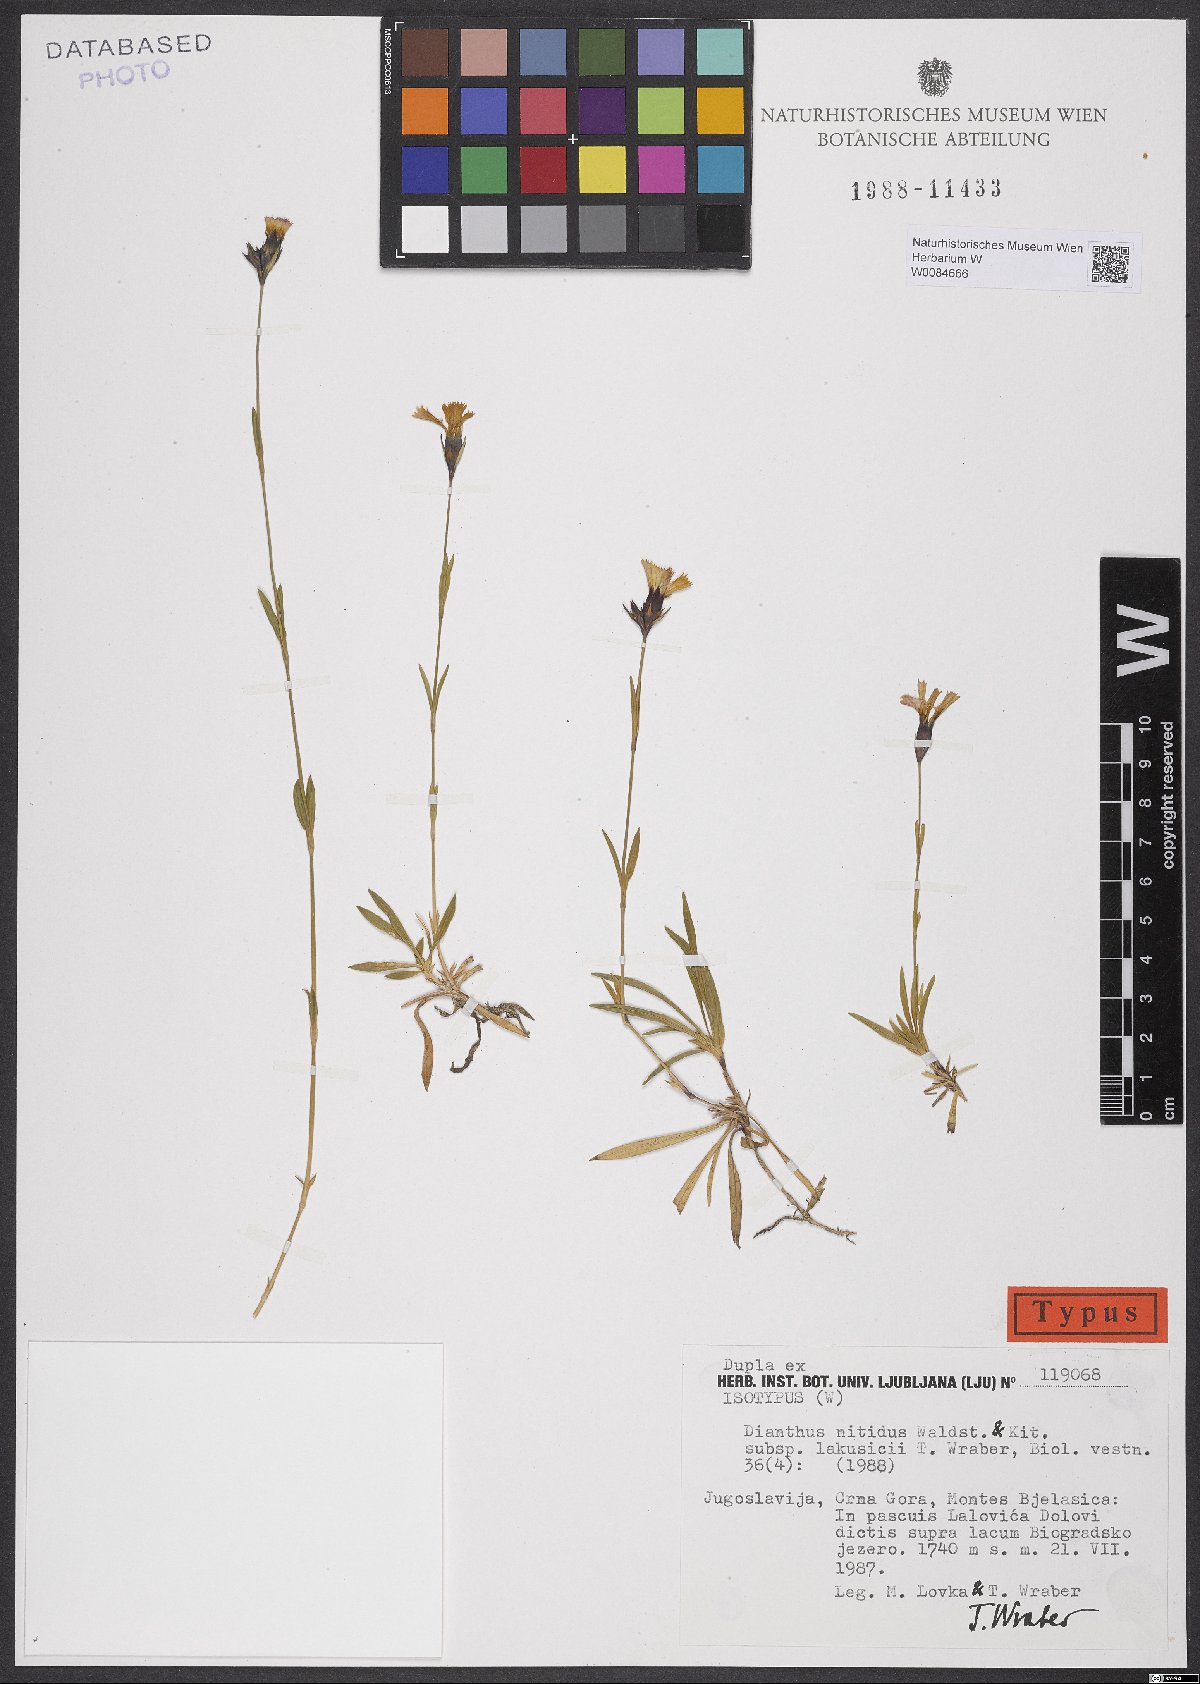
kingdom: Plantae
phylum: Tracheophyta
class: Magnoliopsida
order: Caryophyllales
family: Caryophyllaceae
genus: Dianthus
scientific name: Dianthus scardicus
